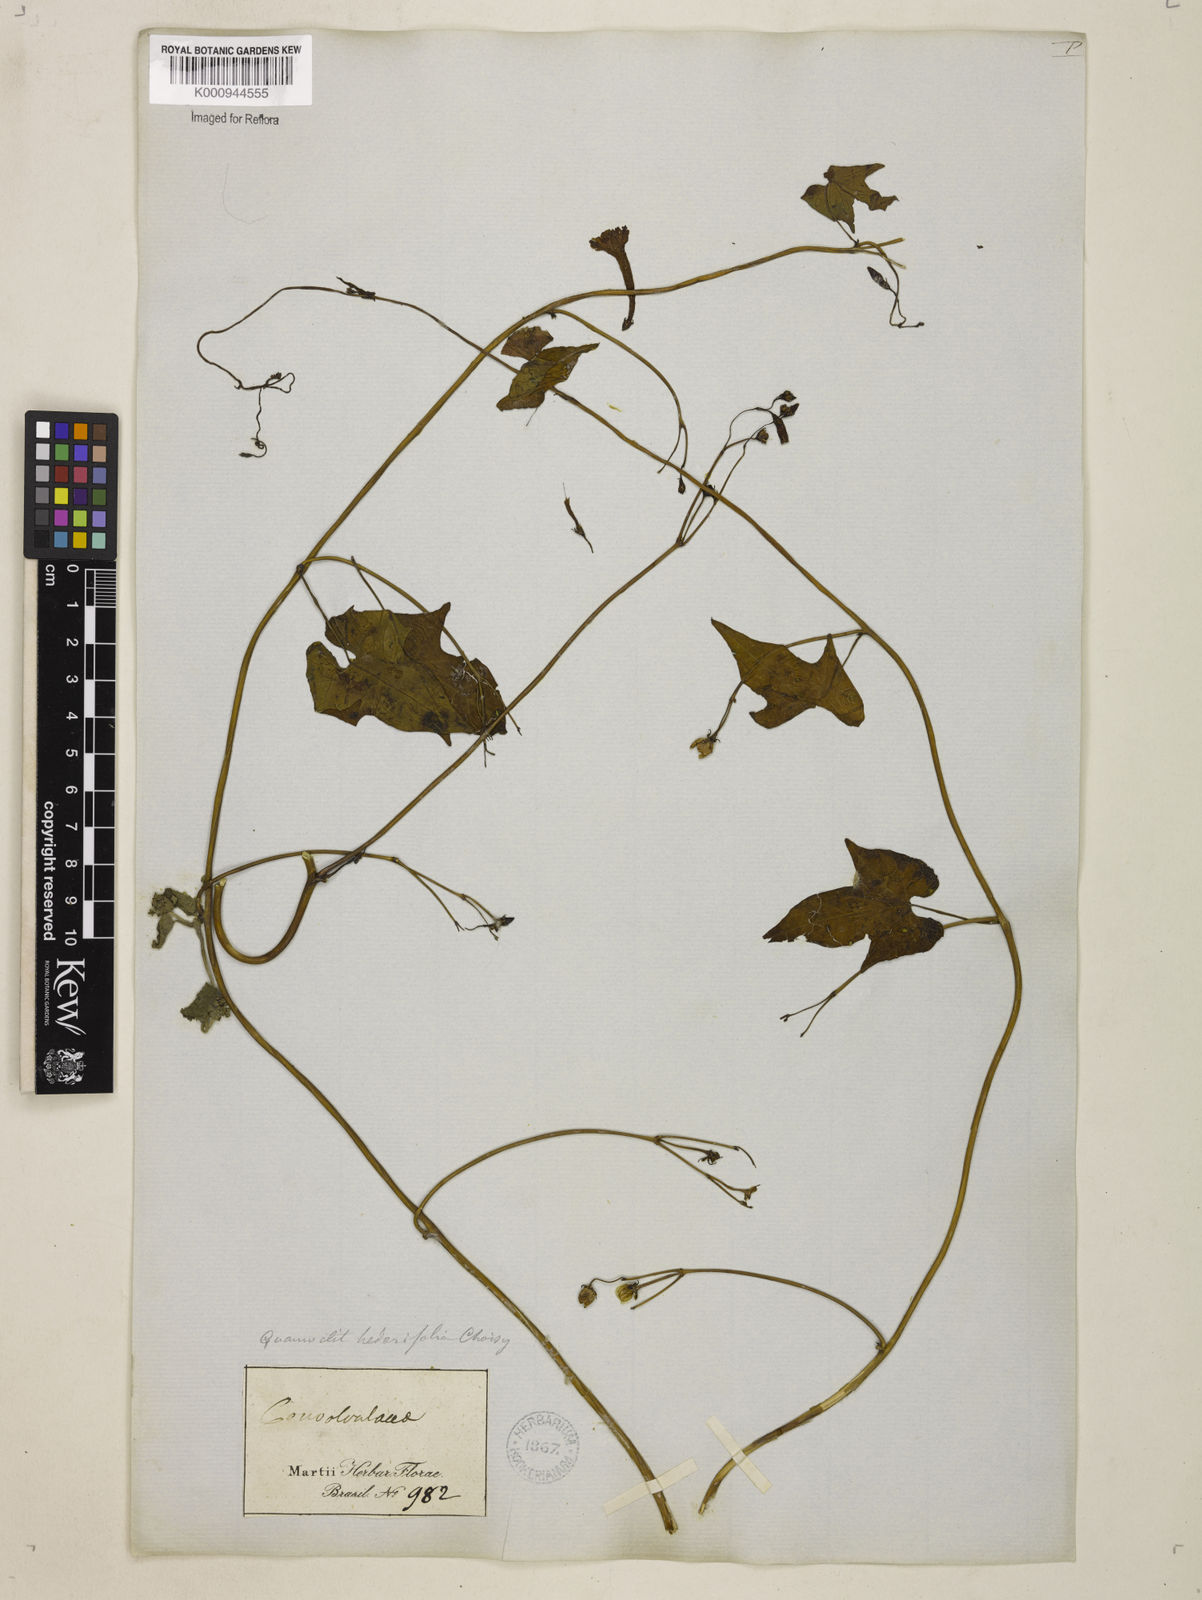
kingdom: Plantae
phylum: Tracheophyta
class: Magnoliopsida
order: Solanales
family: Convolvulaceae
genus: Ipomoea
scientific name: Ipomoea hederifolia
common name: Ivy-leaf morning-glory
